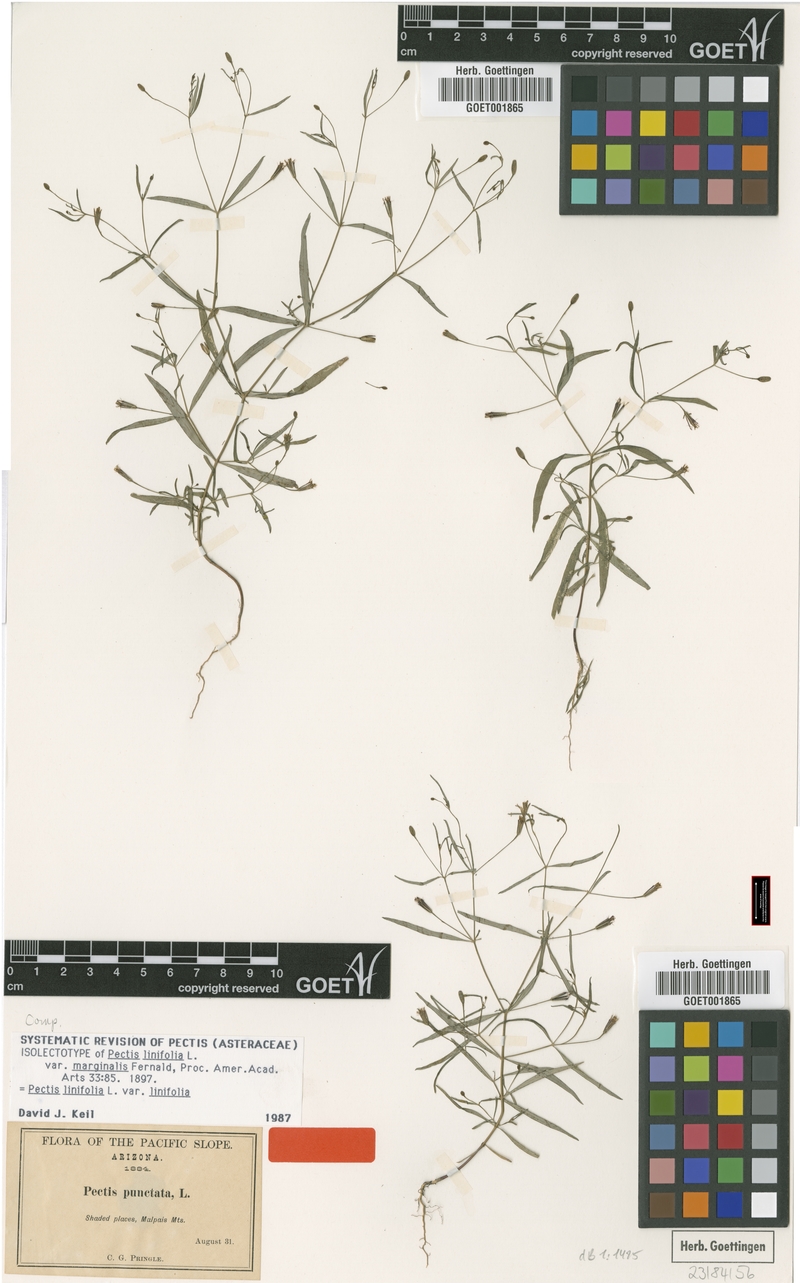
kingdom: Plantae
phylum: Tracheophyta
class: Magnoliopsida
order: Asterales
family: Asteraceae
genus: Pectis
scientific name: Pectis linifolia
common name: Romero macho
